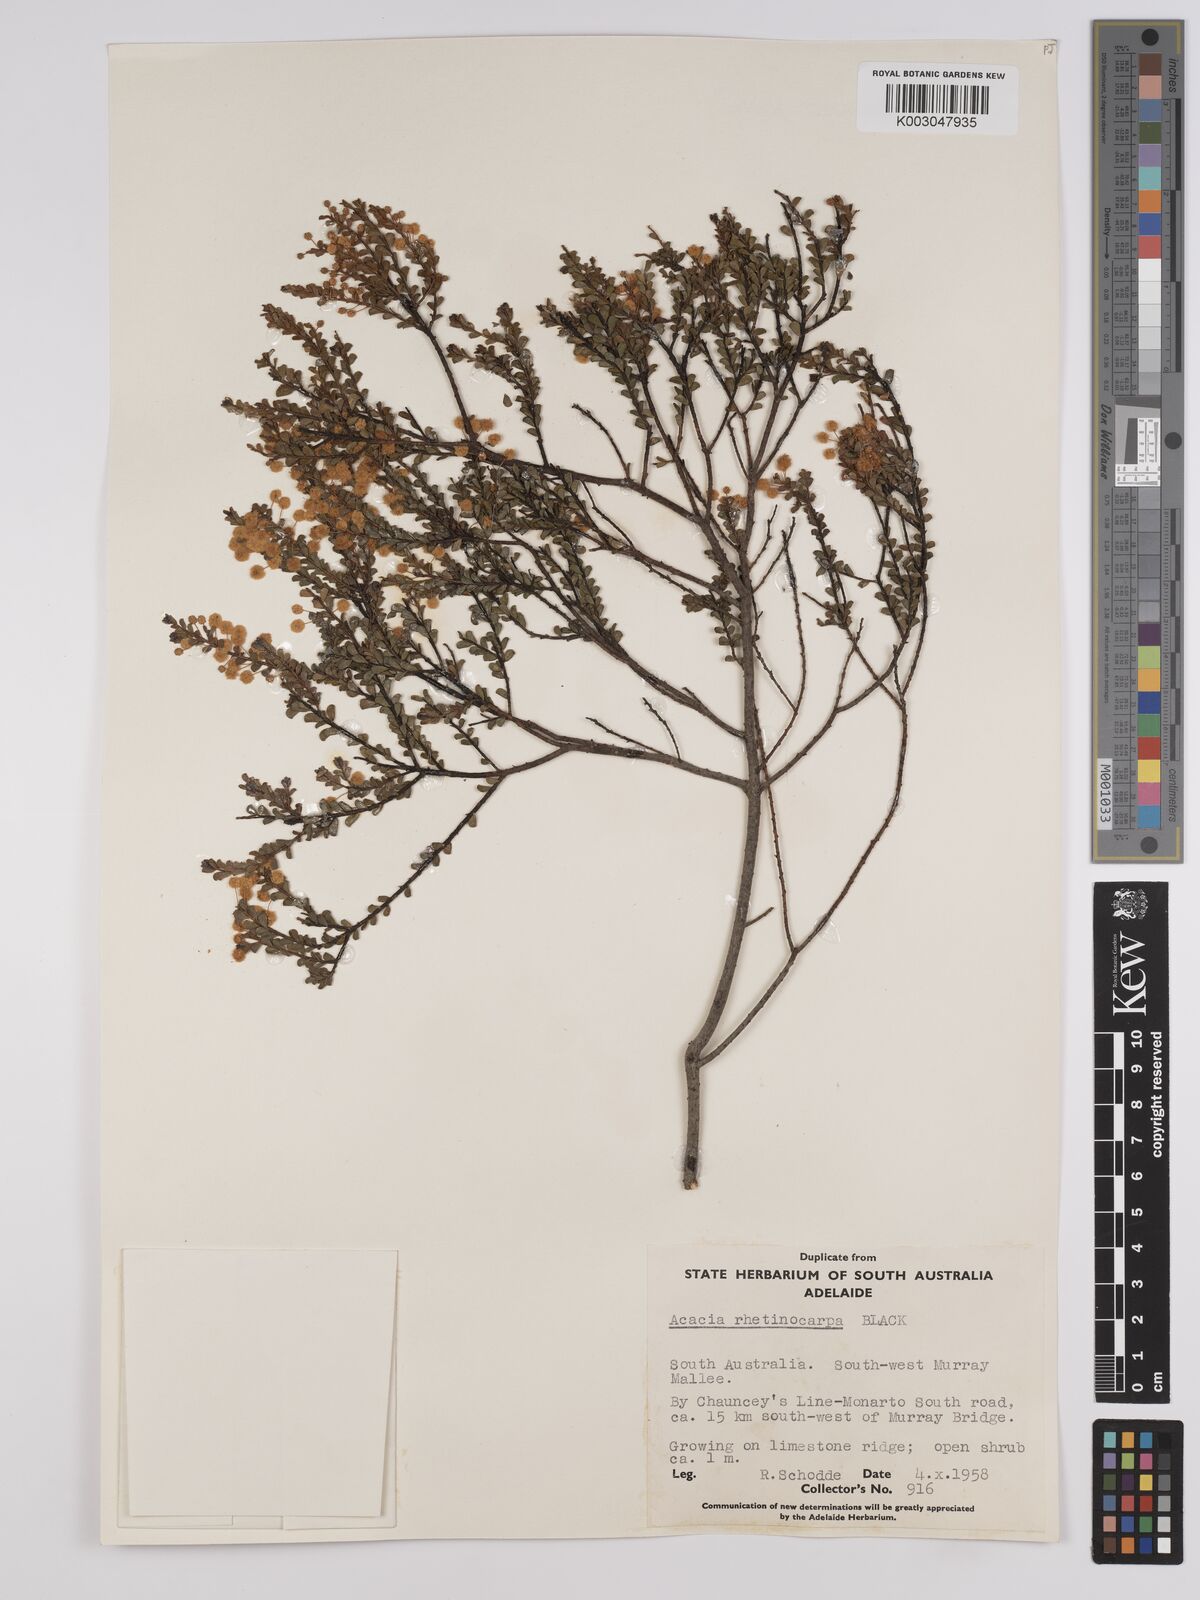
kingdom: Plantae
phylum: Tracheophyta
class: Magnoliopsida
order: Fabales
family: Fabaceae
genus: Acacia
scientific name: Acacia brachyclada
